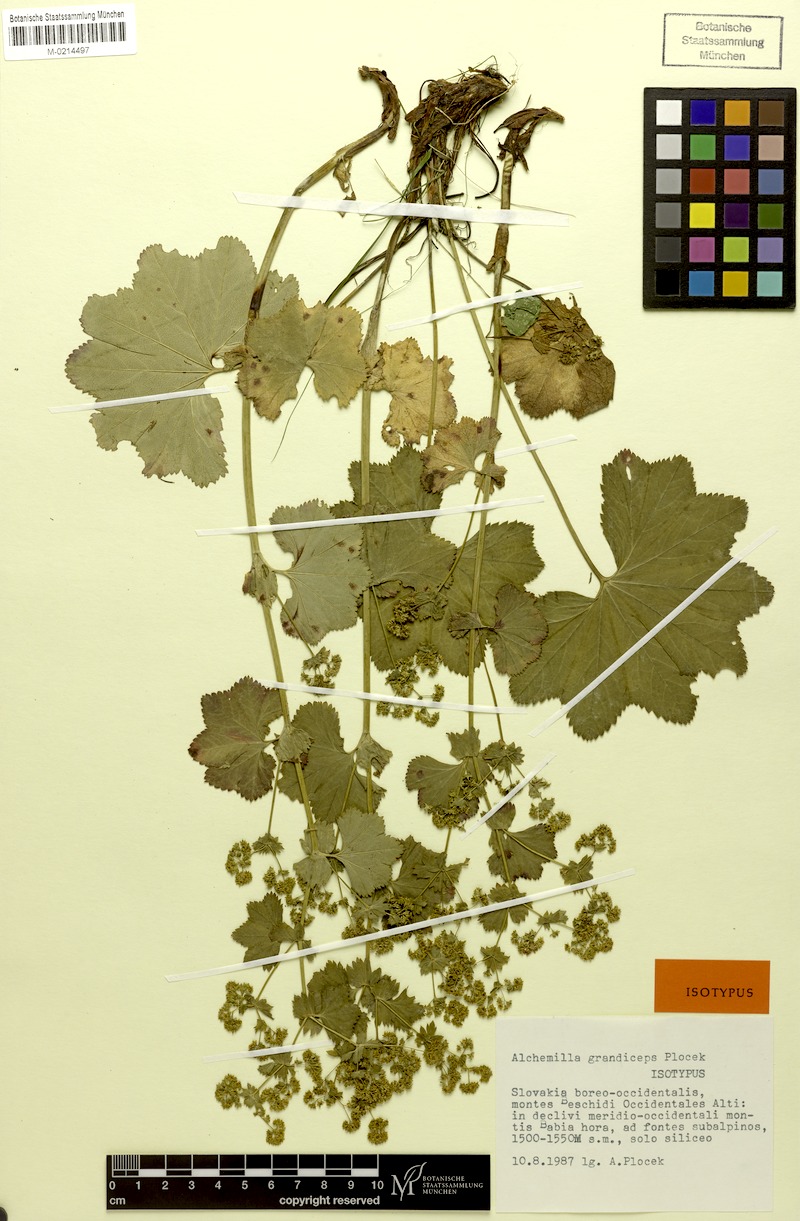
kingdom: Plantae
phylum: Tracheophyta
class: Magnoliopsida
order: Rosales
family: Rosaceae
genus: Alchemilla
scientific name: Alchemilla grandiceps
